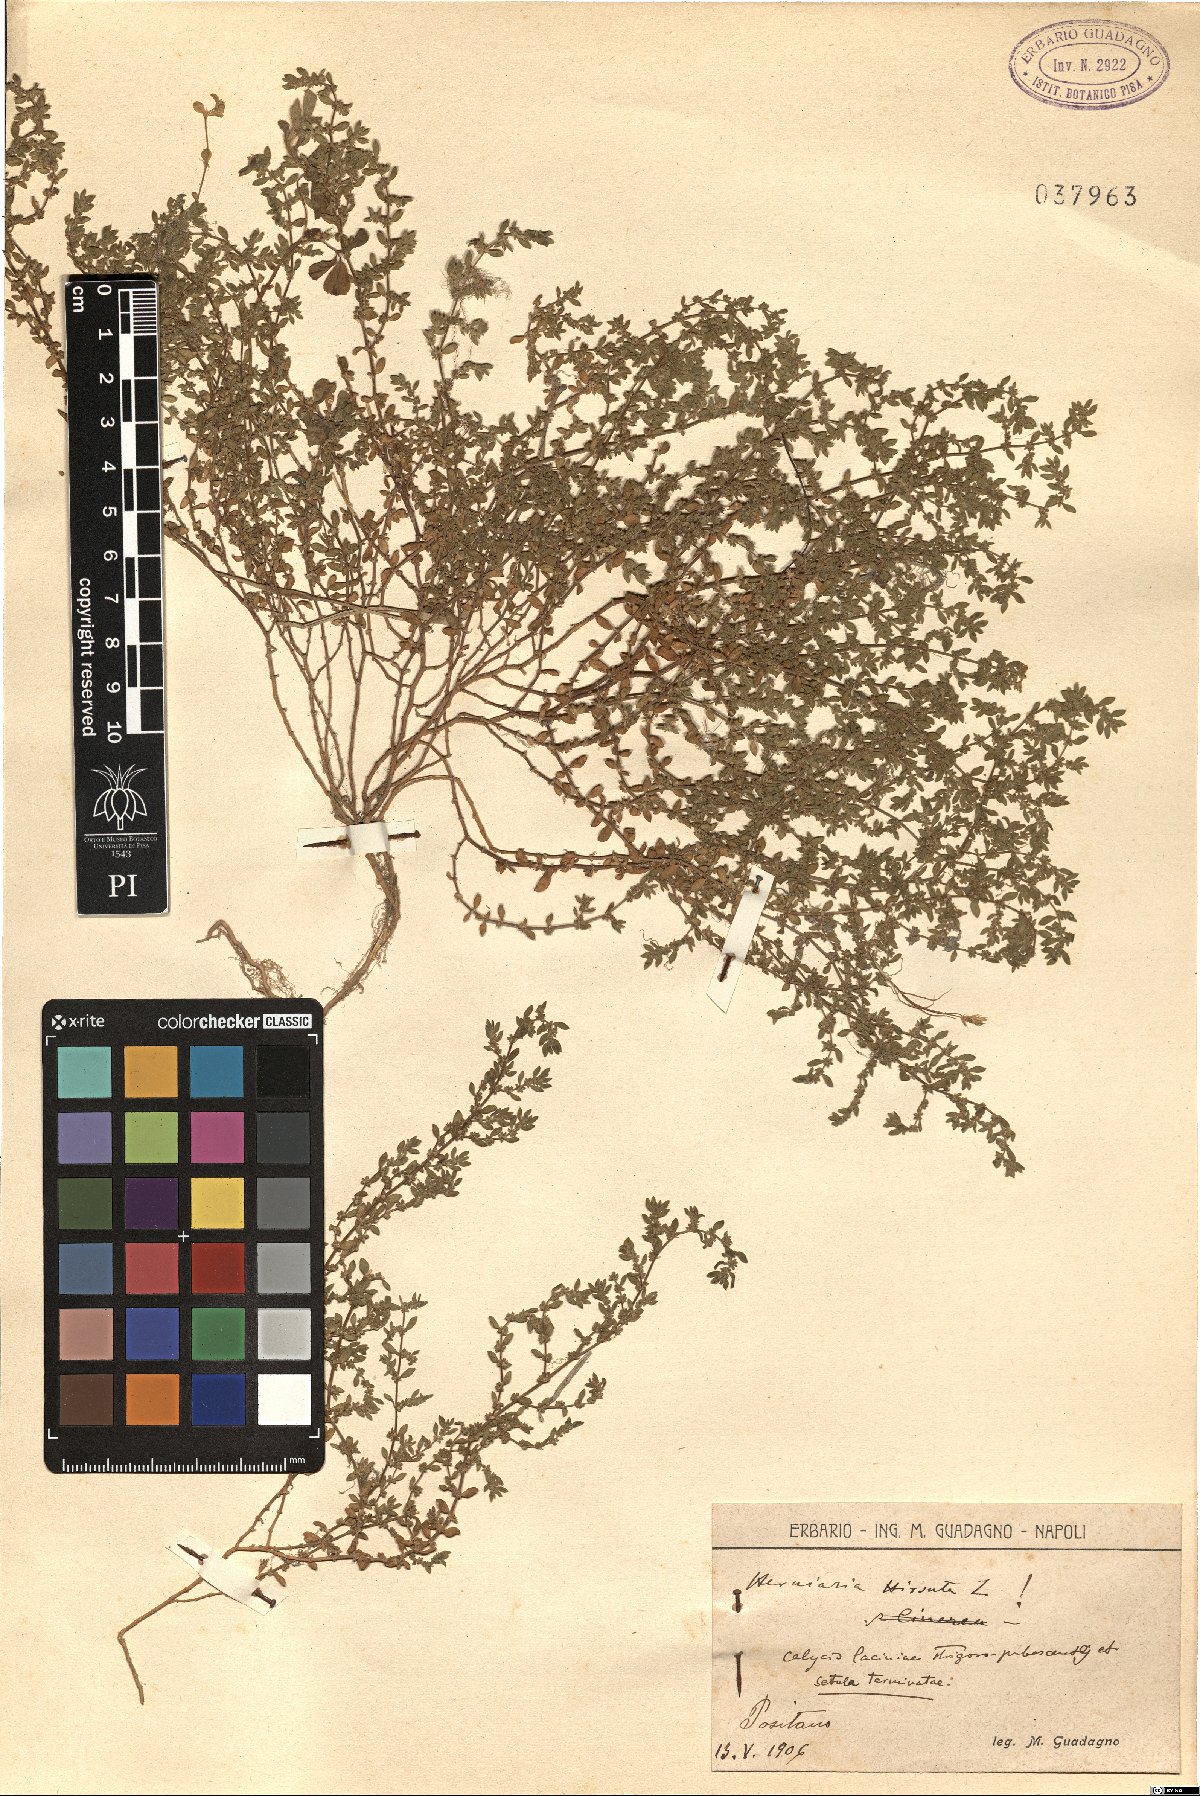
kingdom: Plantae
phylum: Tracheophyta
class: Magnoliopsida
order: Caryophyllales
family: Caryophyllaceae
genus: Herniaria
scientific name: Herniaria hirsuta
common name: Hairy rupturewort
